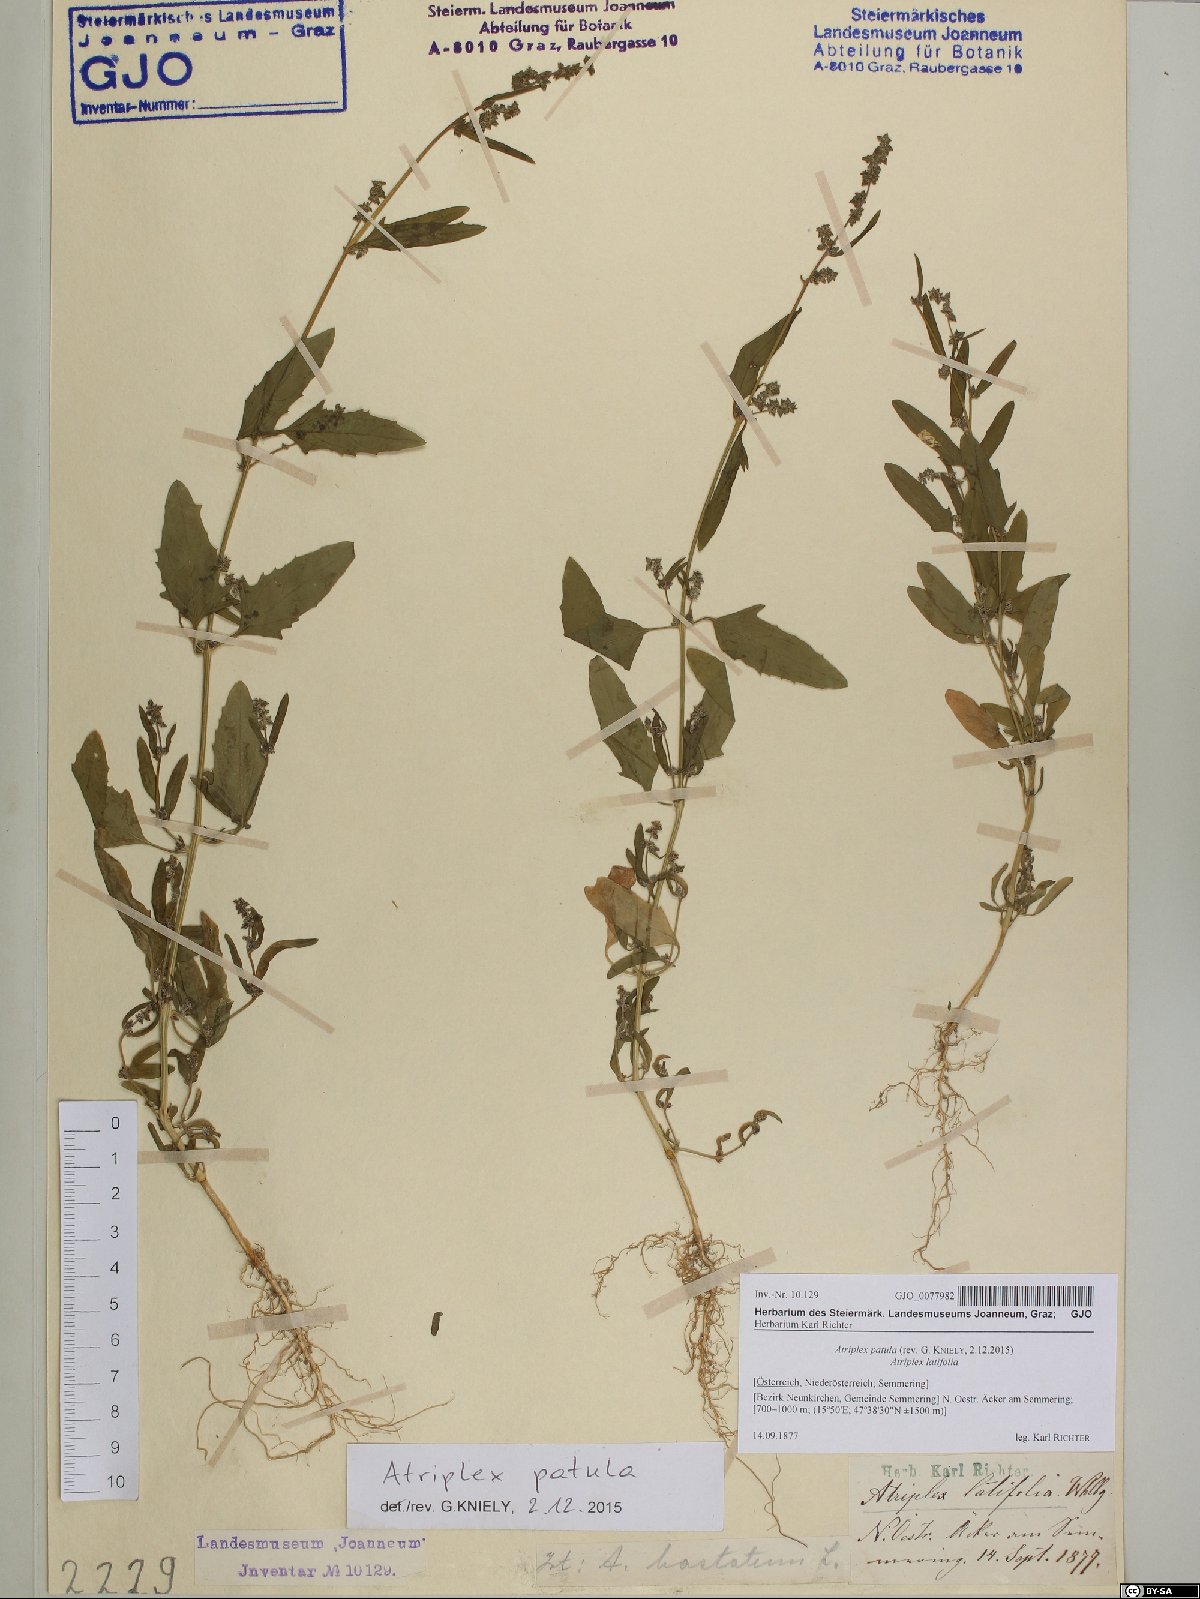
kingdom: Plantae
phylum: Tracheophyta
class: Magnoliopsida
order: Caryophyllales
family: Amaranthaceae
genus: Atriplex
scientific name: Atriplex patula
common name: Common orache
